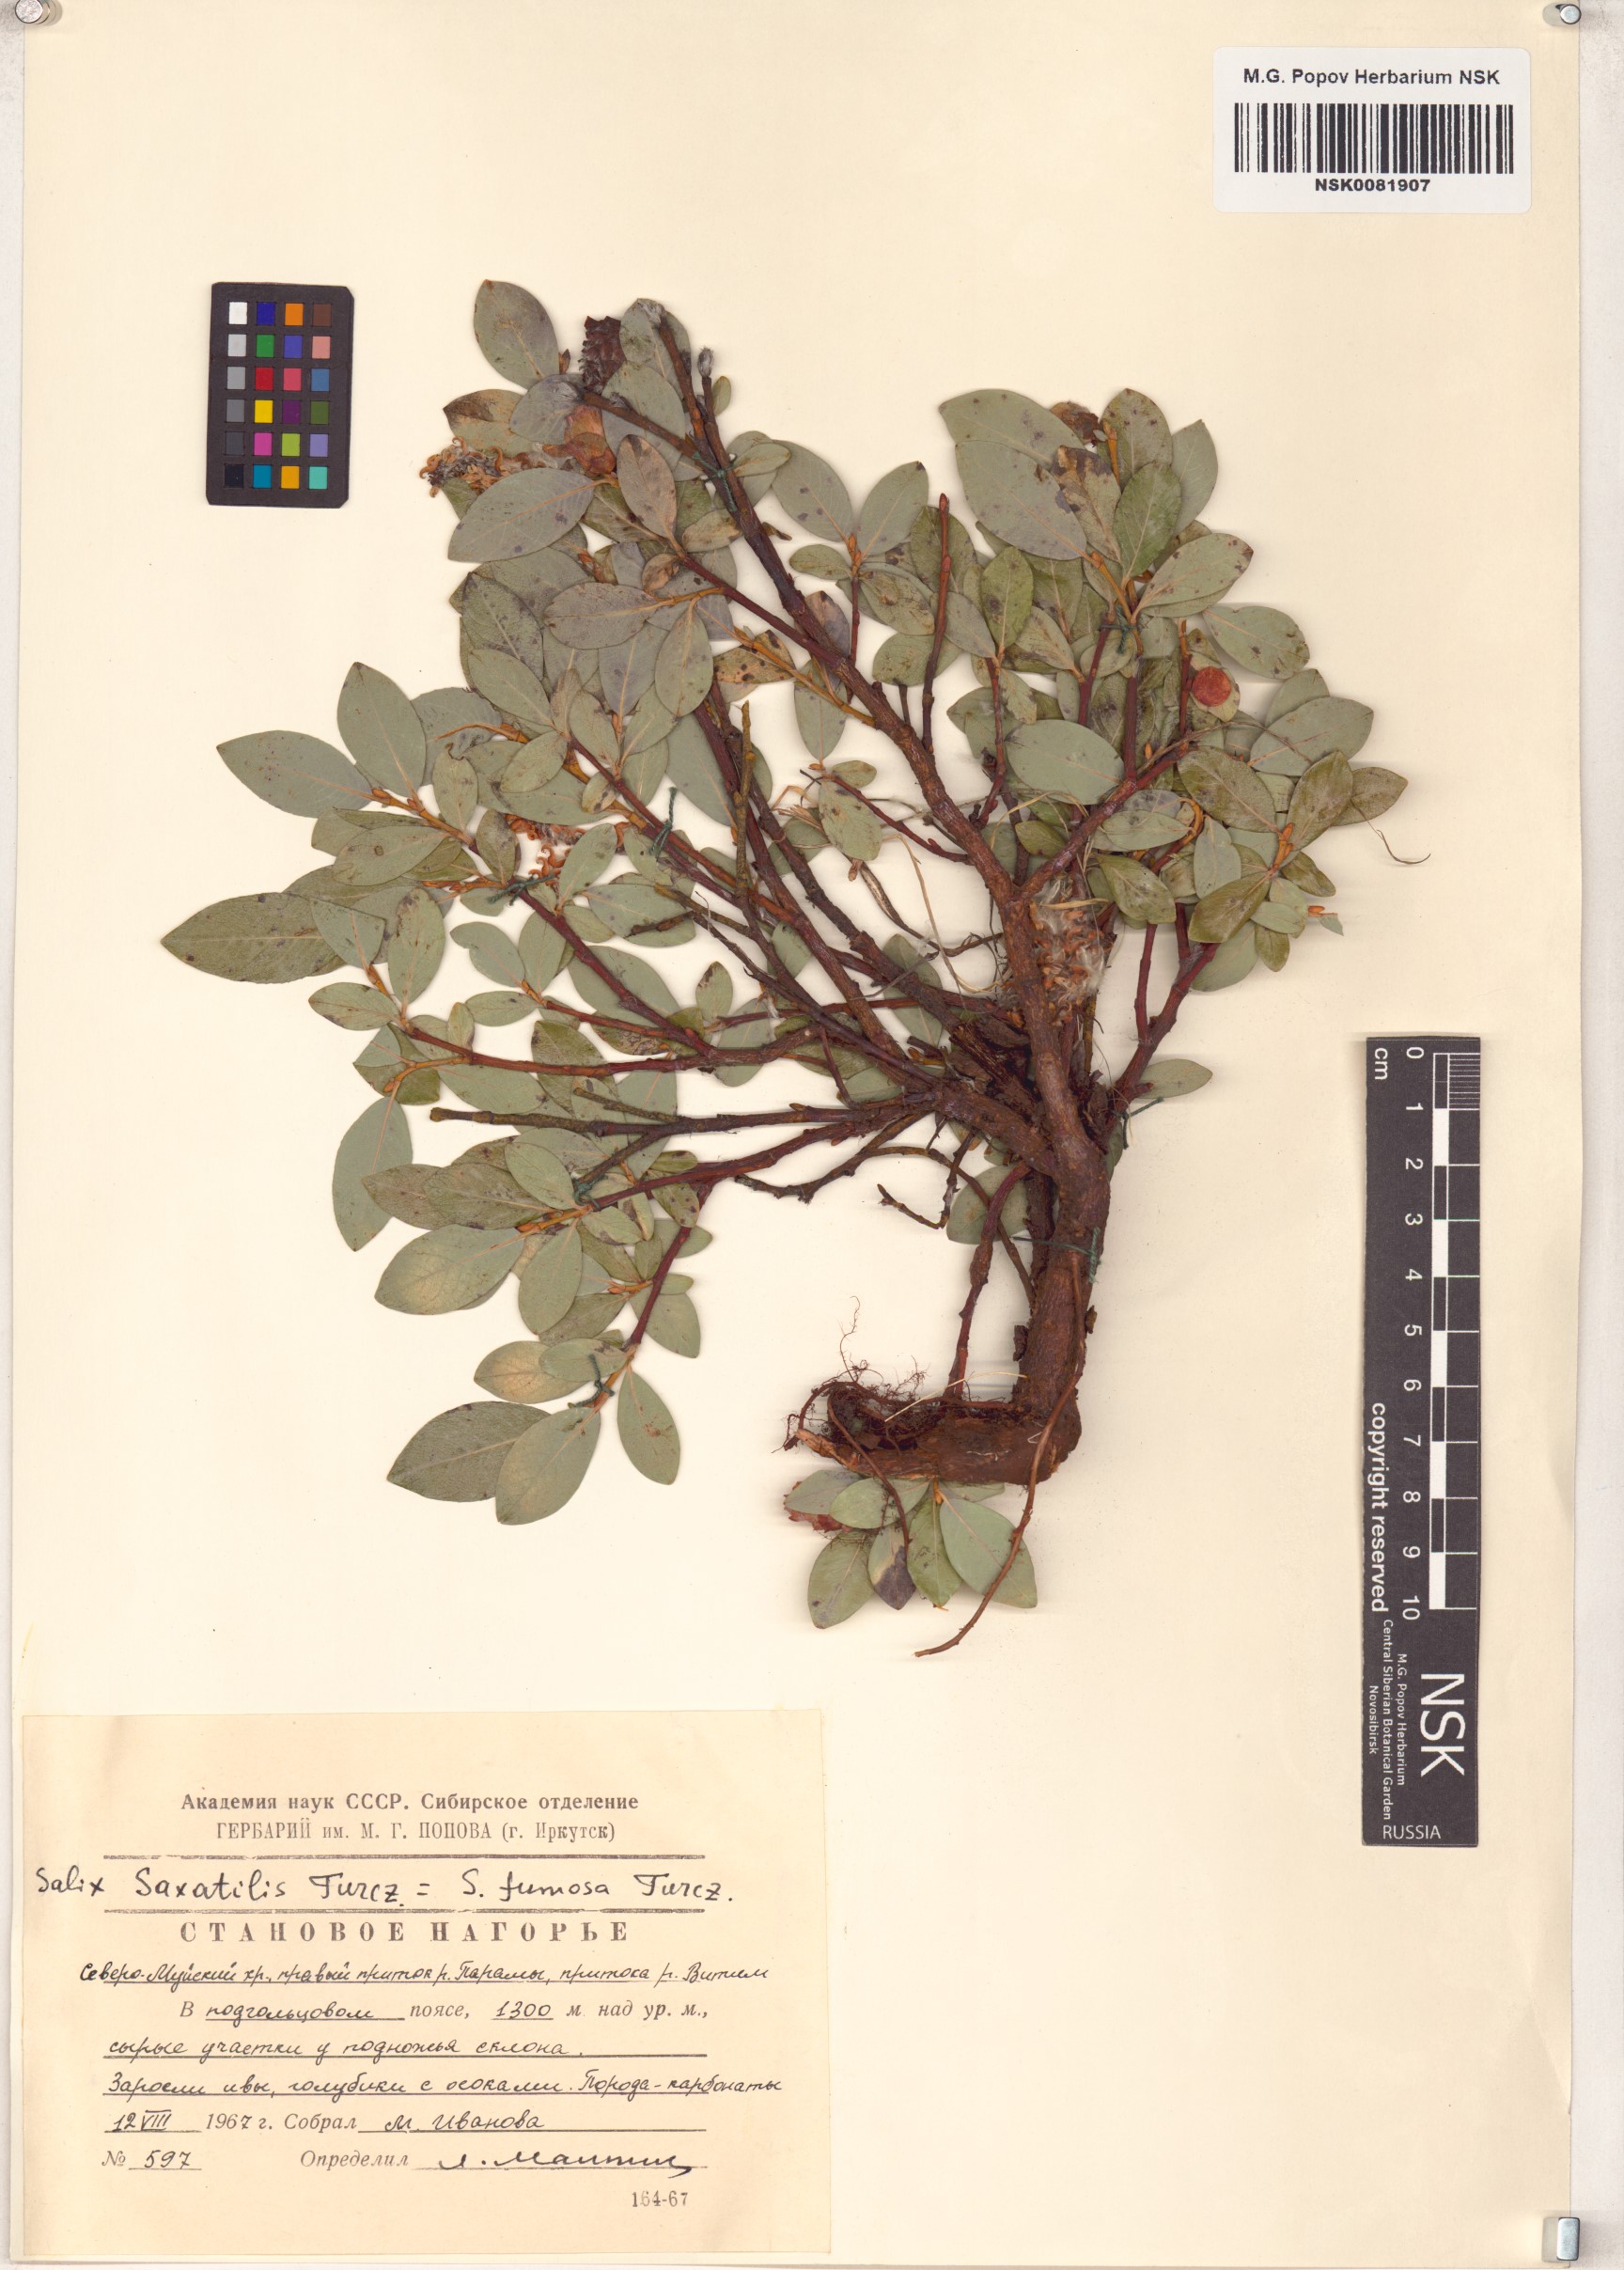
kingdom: Plantae
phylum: Tracheophyta
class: Magnoliopsida
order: Malpighiales
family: Salicaceae
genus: Salix
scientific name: Salix saxatilis
